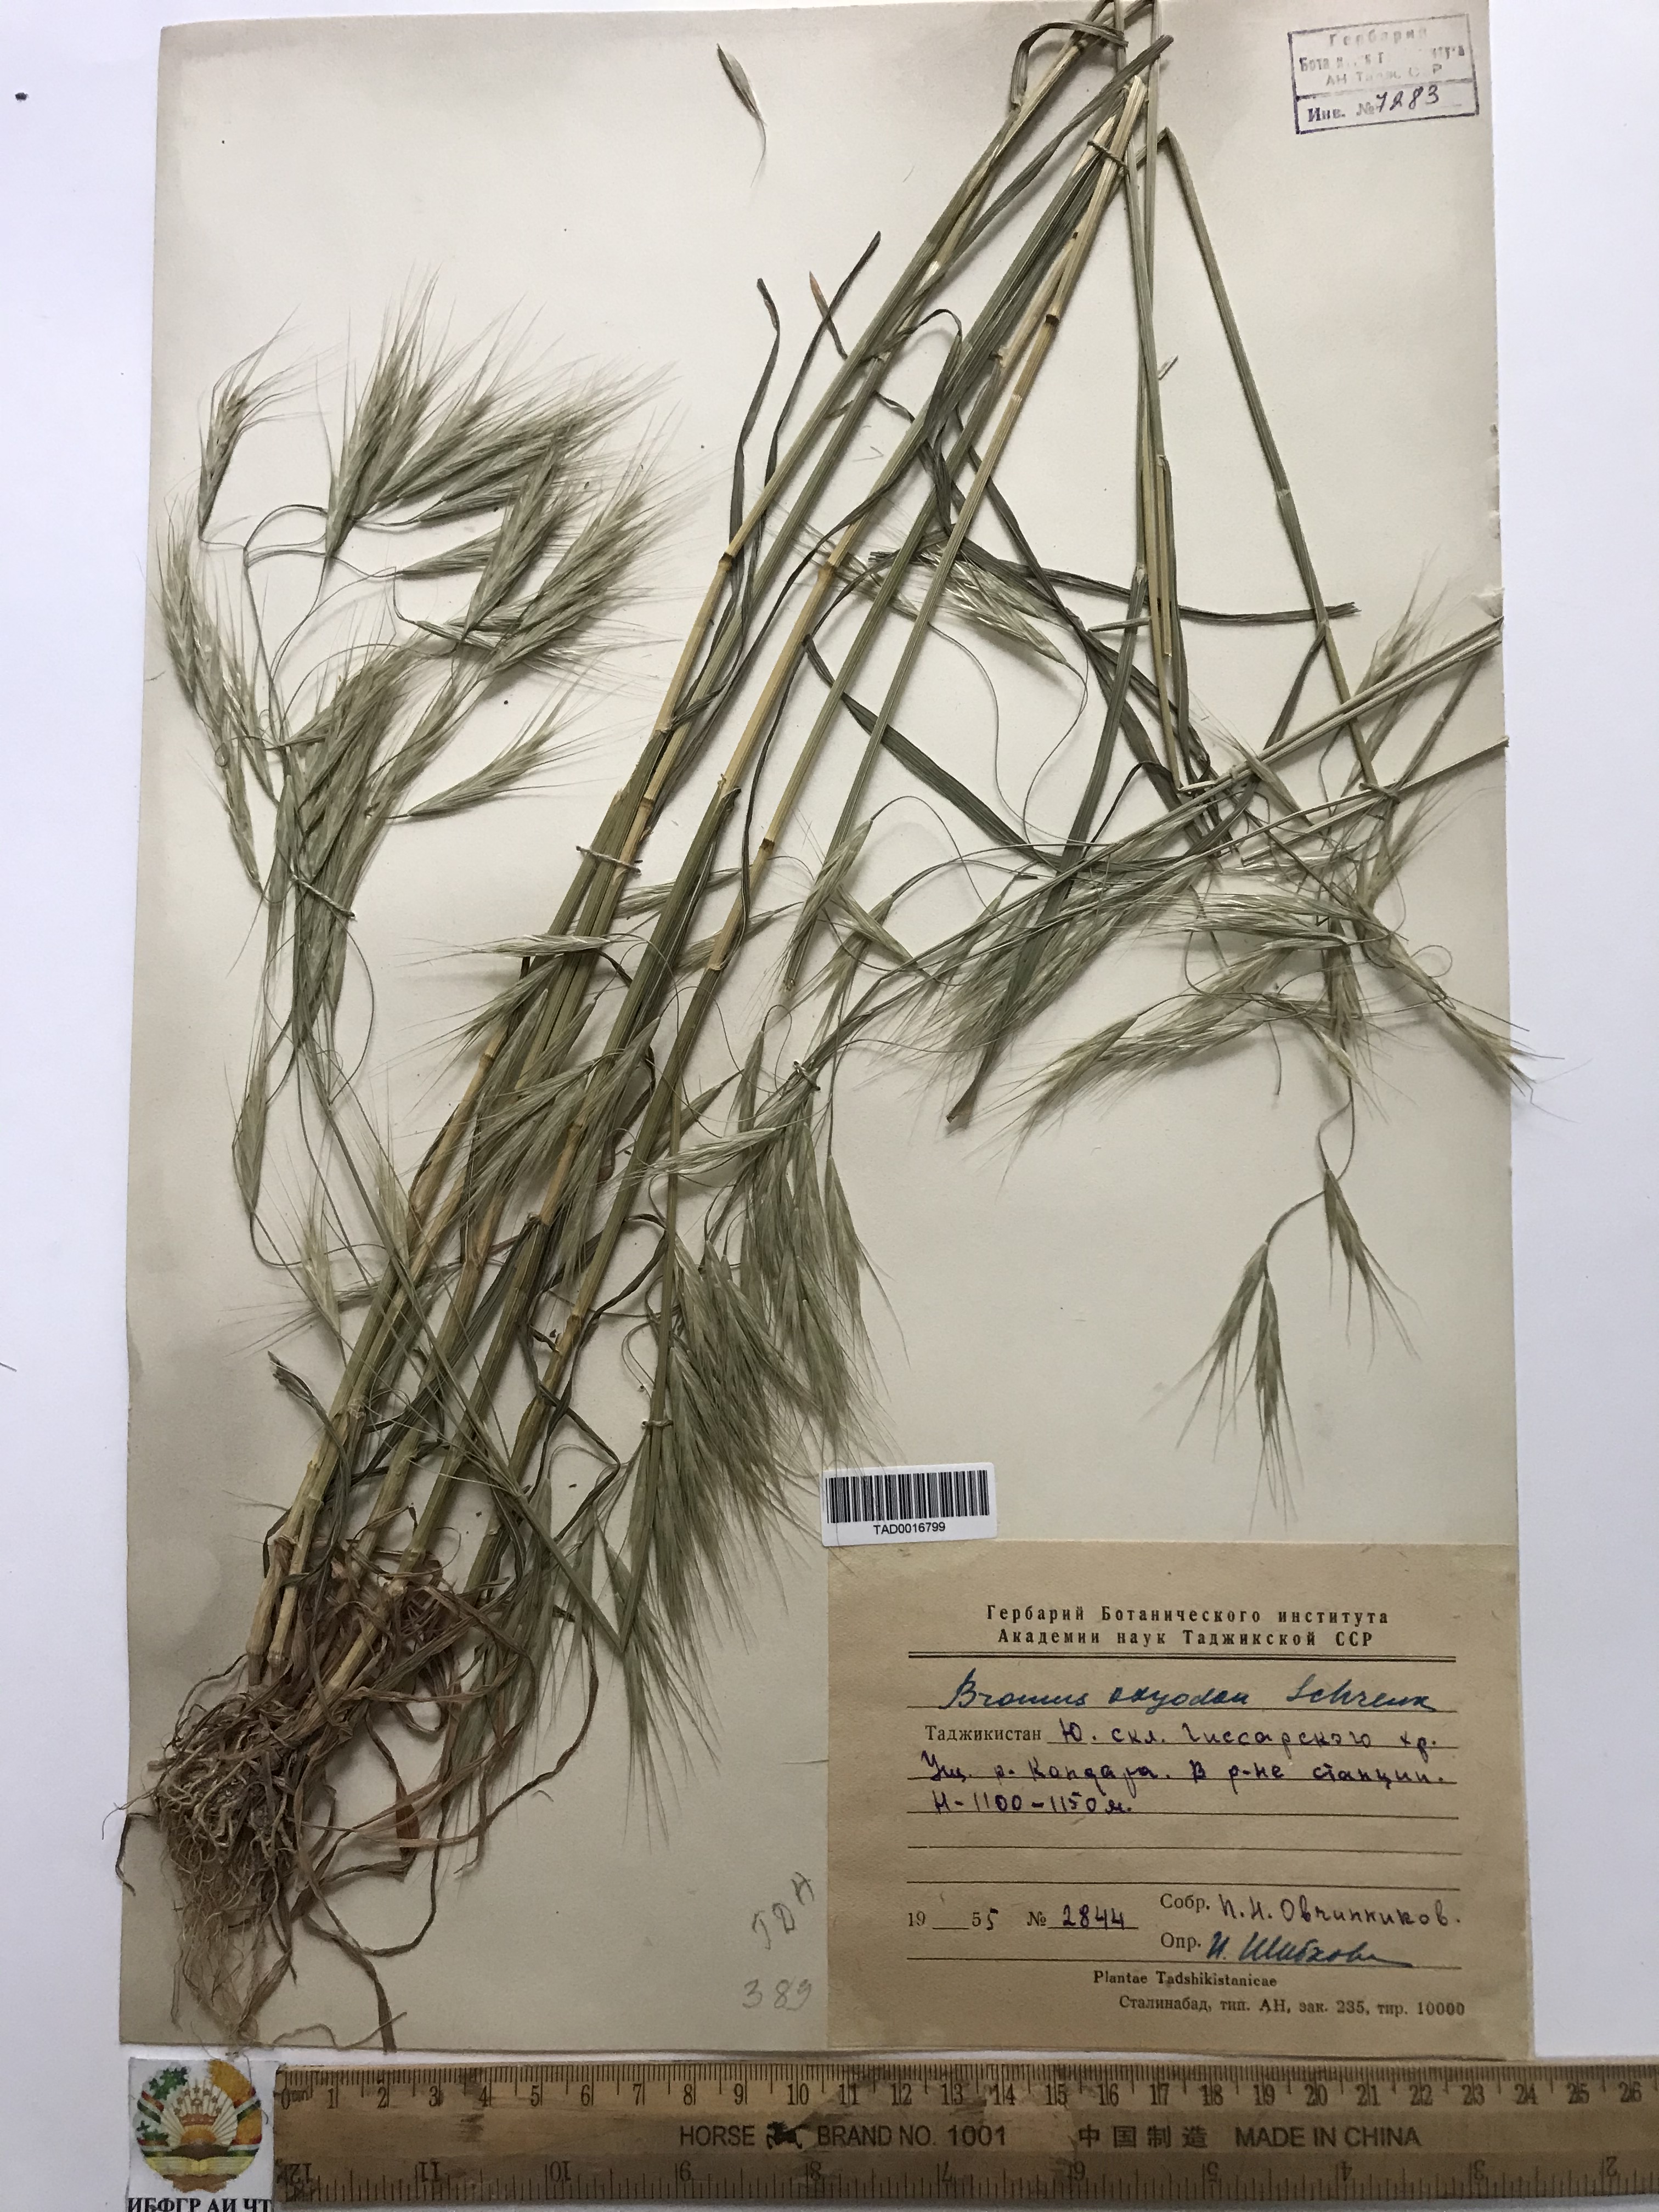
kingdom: Plantae
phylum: Tracheophyta
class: Liliopsida
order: Poales
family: Poaceae
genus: Bromus
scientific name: Bromus oxyodon
